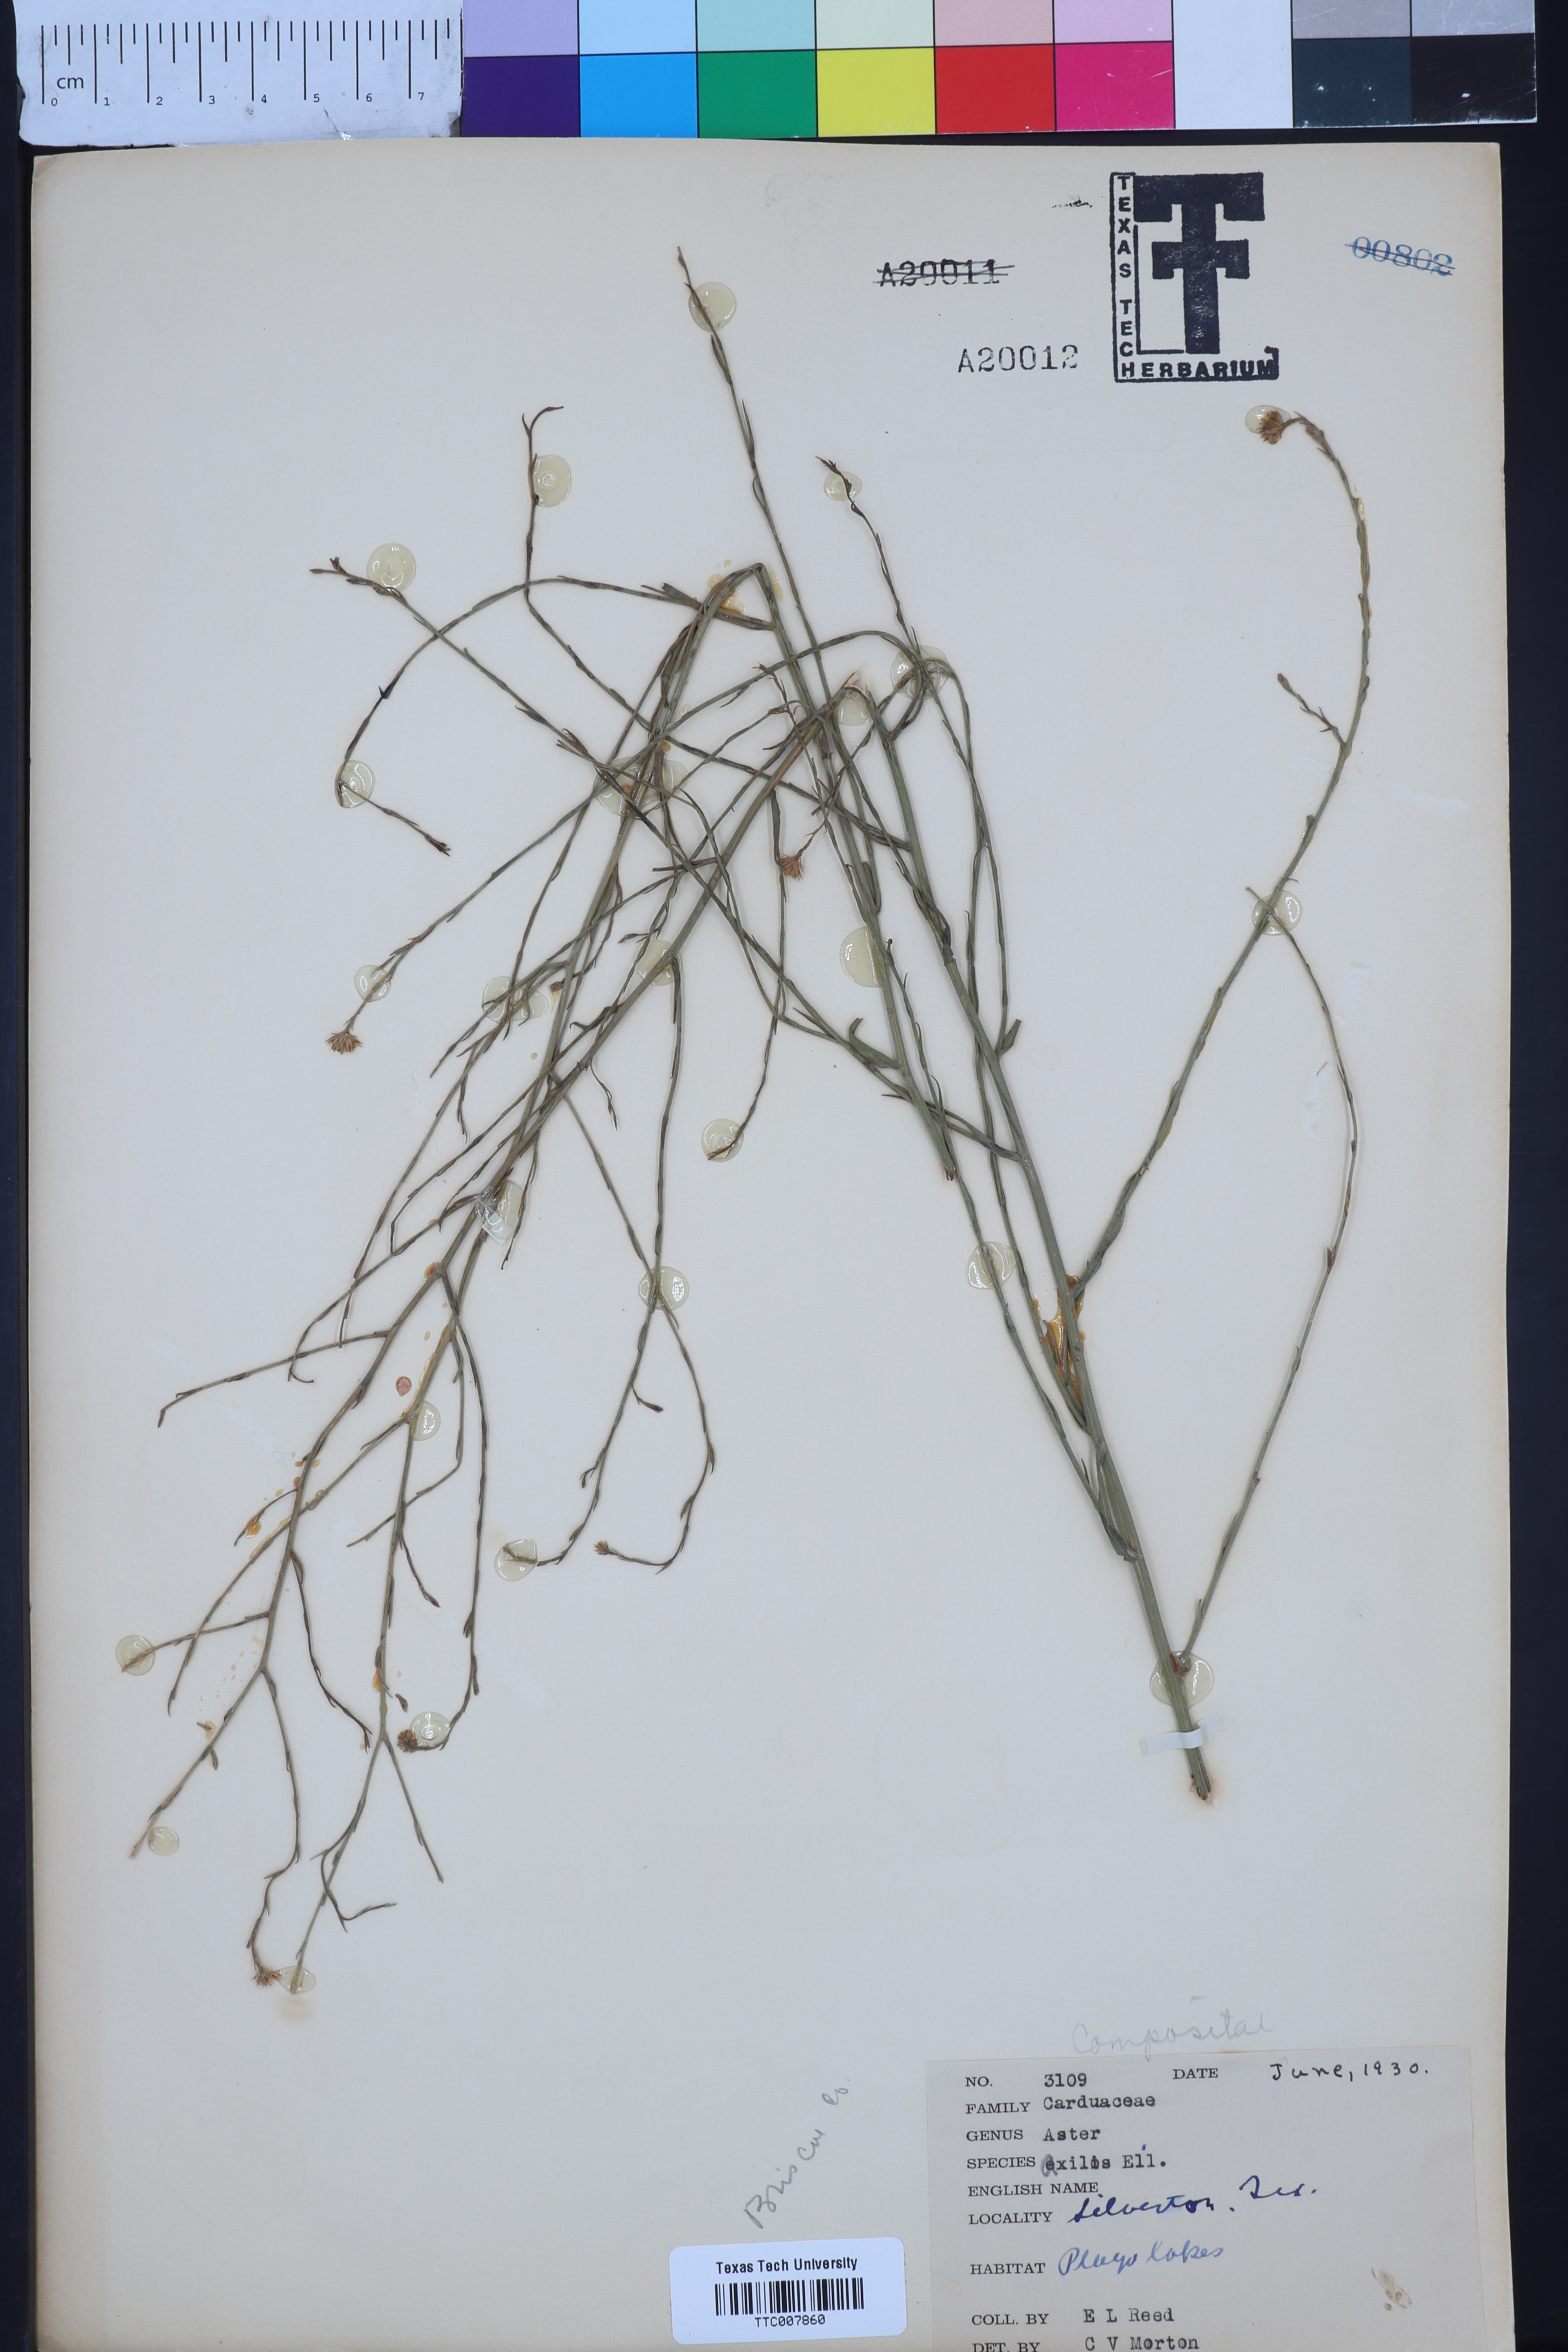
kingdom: Plantae
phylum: Tracheophyta
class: Magnoliopsida
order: Asterales
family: Asteraceae
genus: Olearia
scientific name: Olearia axillaris
